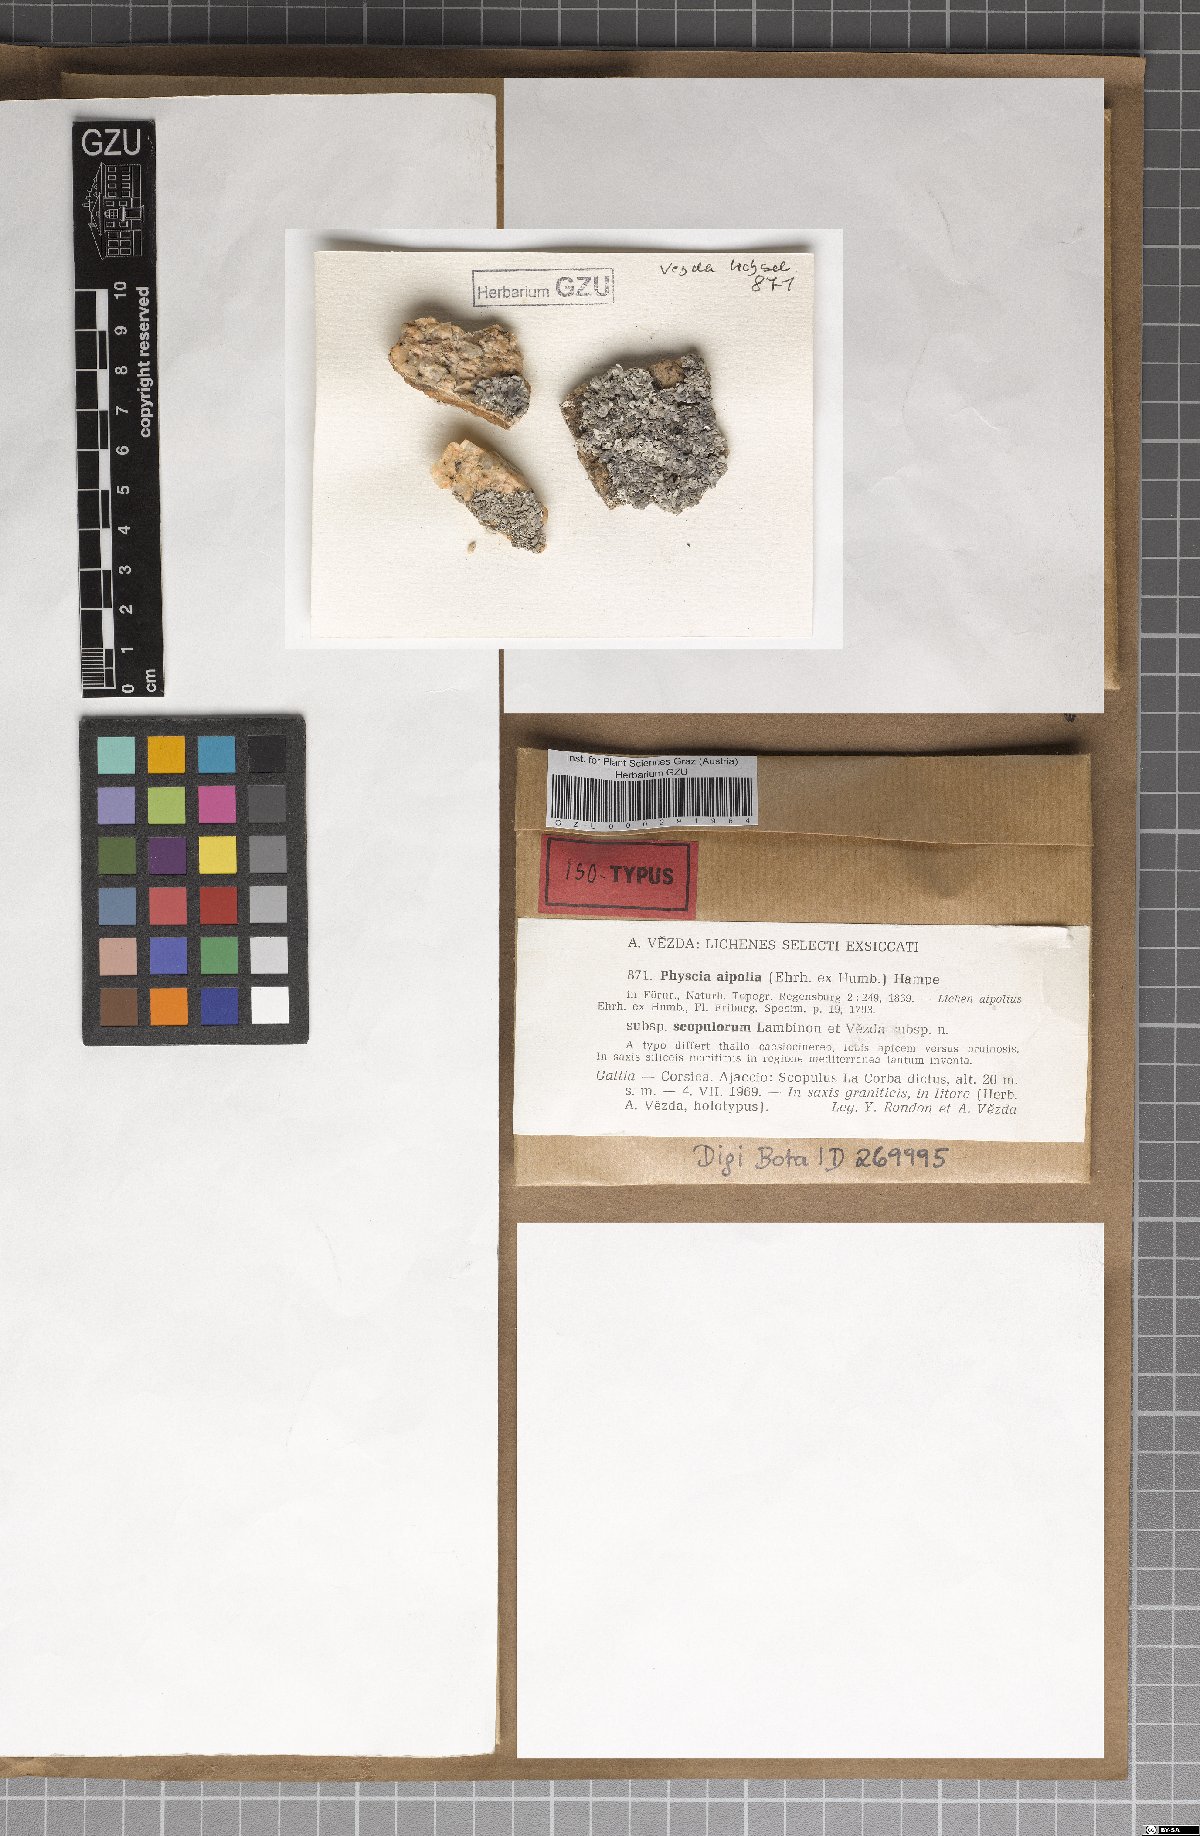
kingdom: Fungi
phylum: Ascomycota
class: Lecanoromycetes
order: Caliciales
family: Physciaceae
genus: Physcia
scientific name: Physcia mediterranea
